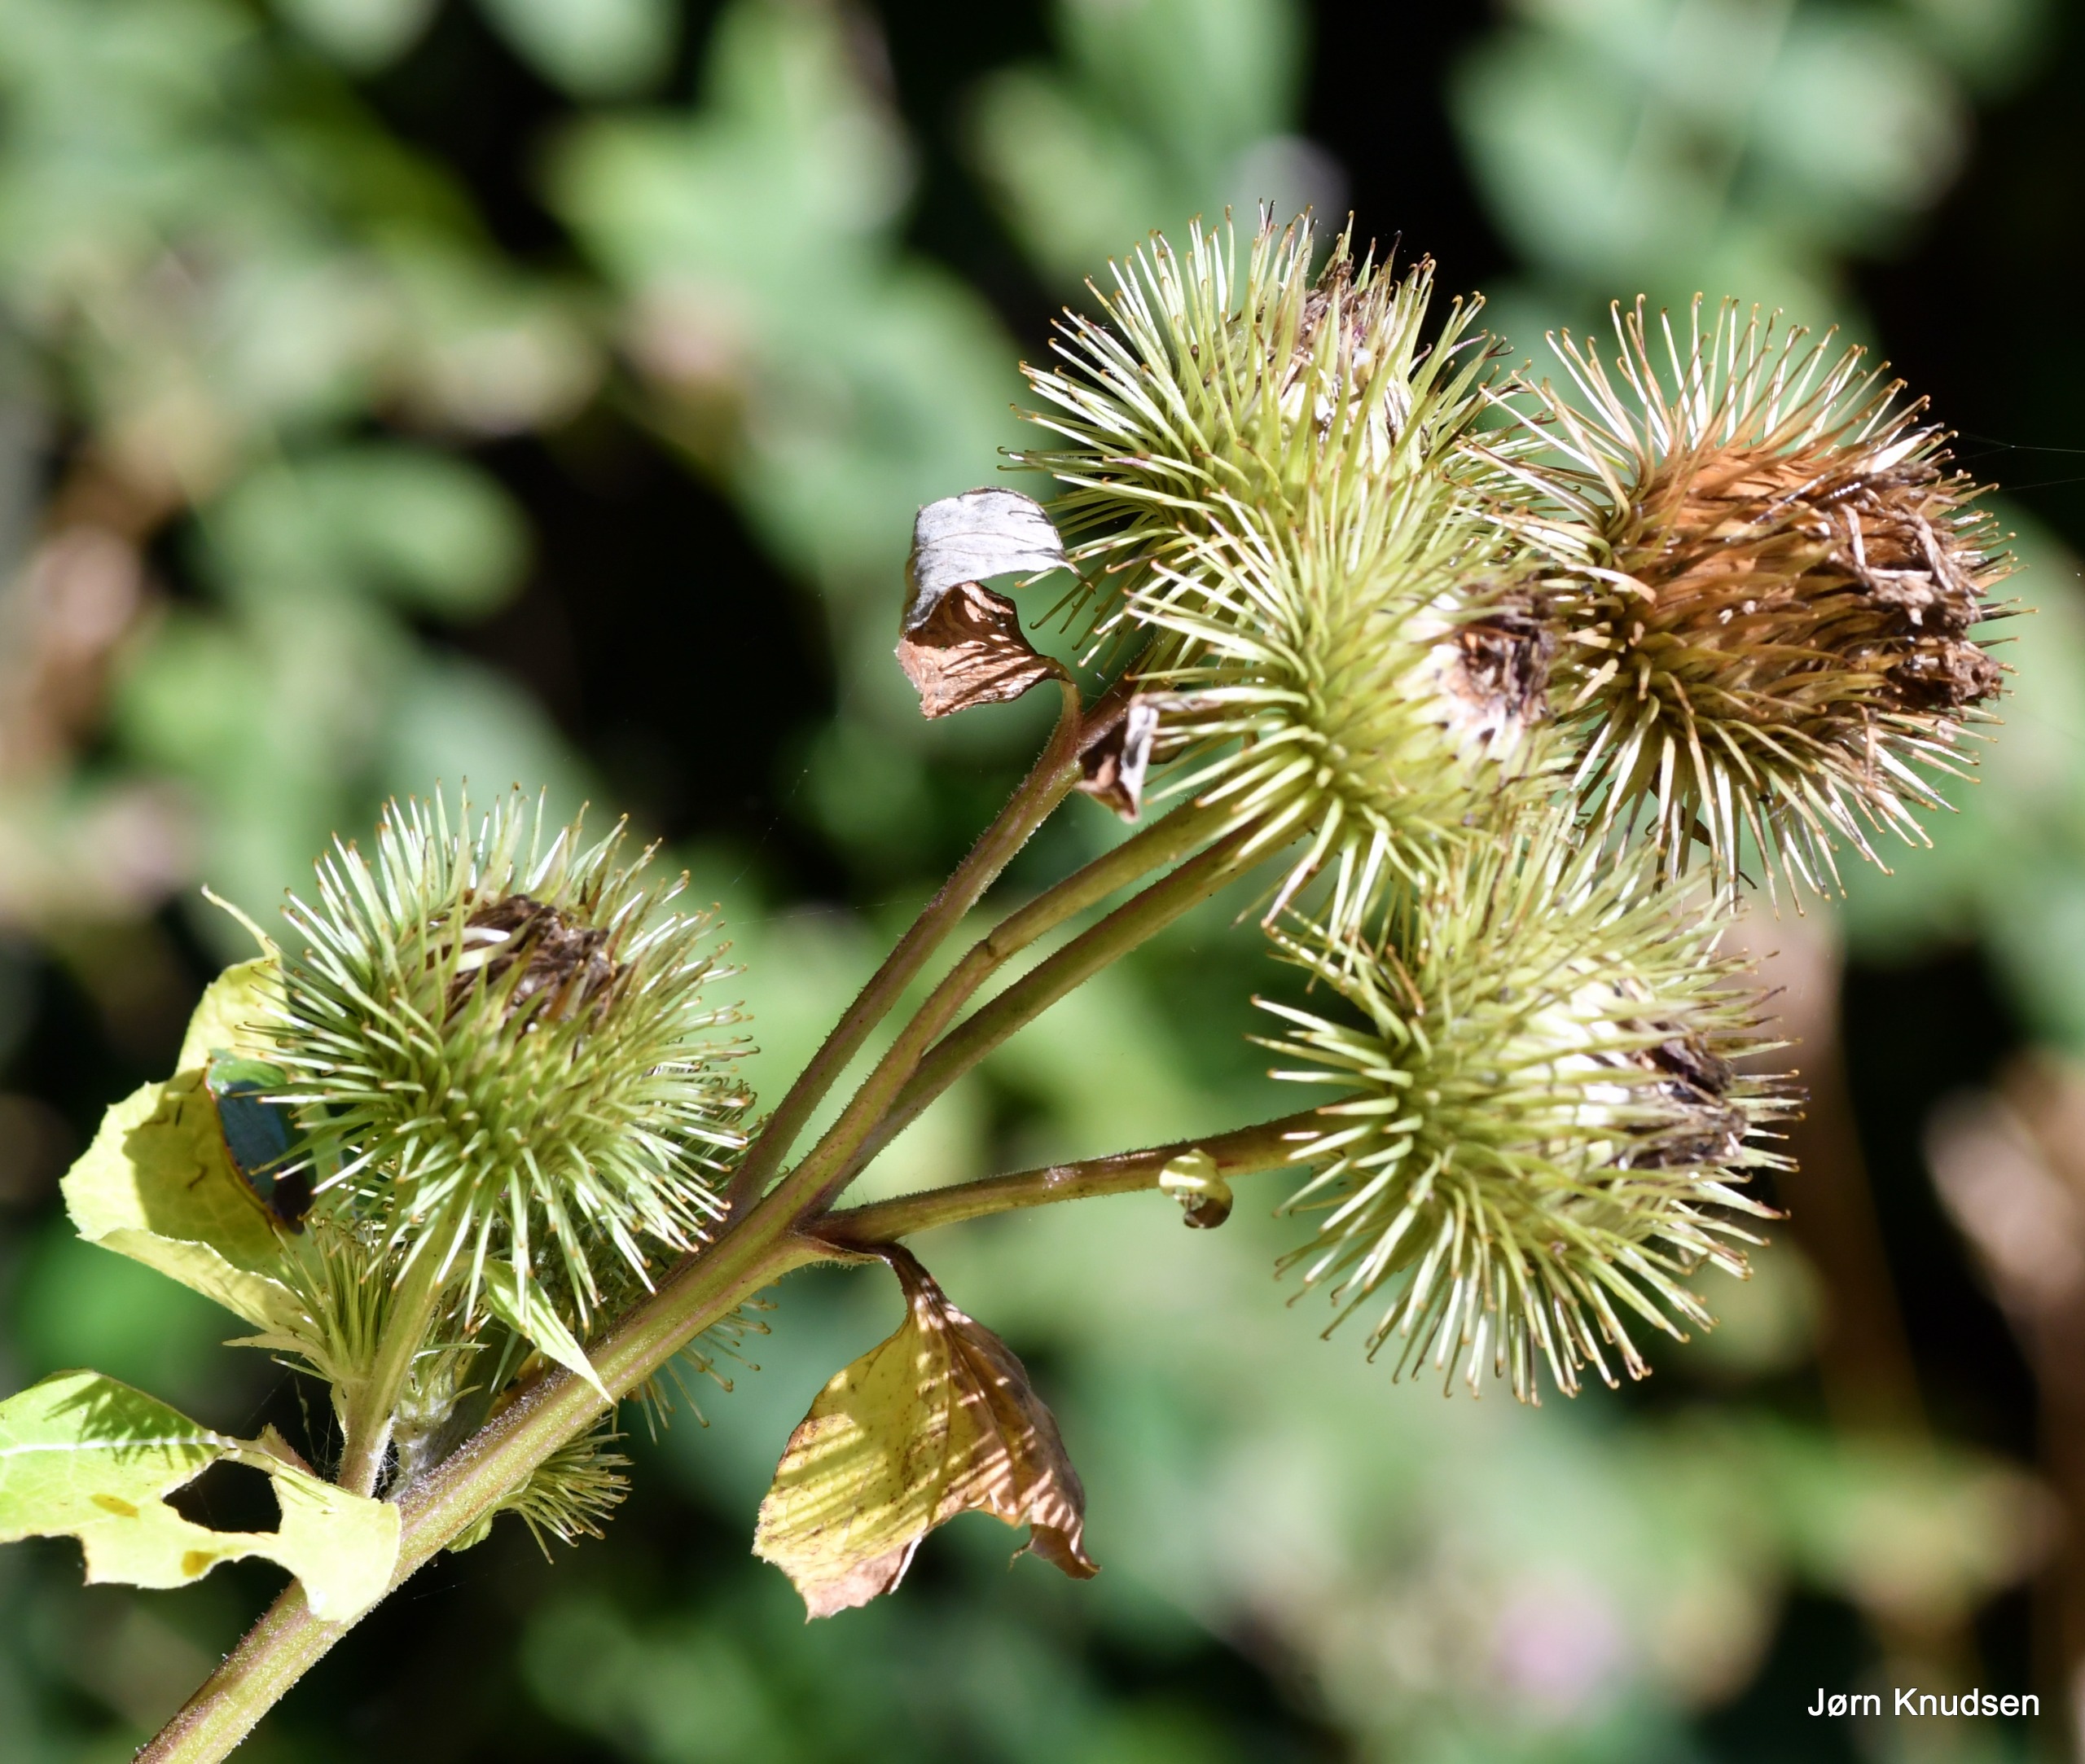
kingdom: Plantae
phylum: Tracheophyta
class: Magnoliopsida
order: Asterales
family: Asteraceae
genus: Arctium
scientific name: Arctium lappa
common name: Glat burre
